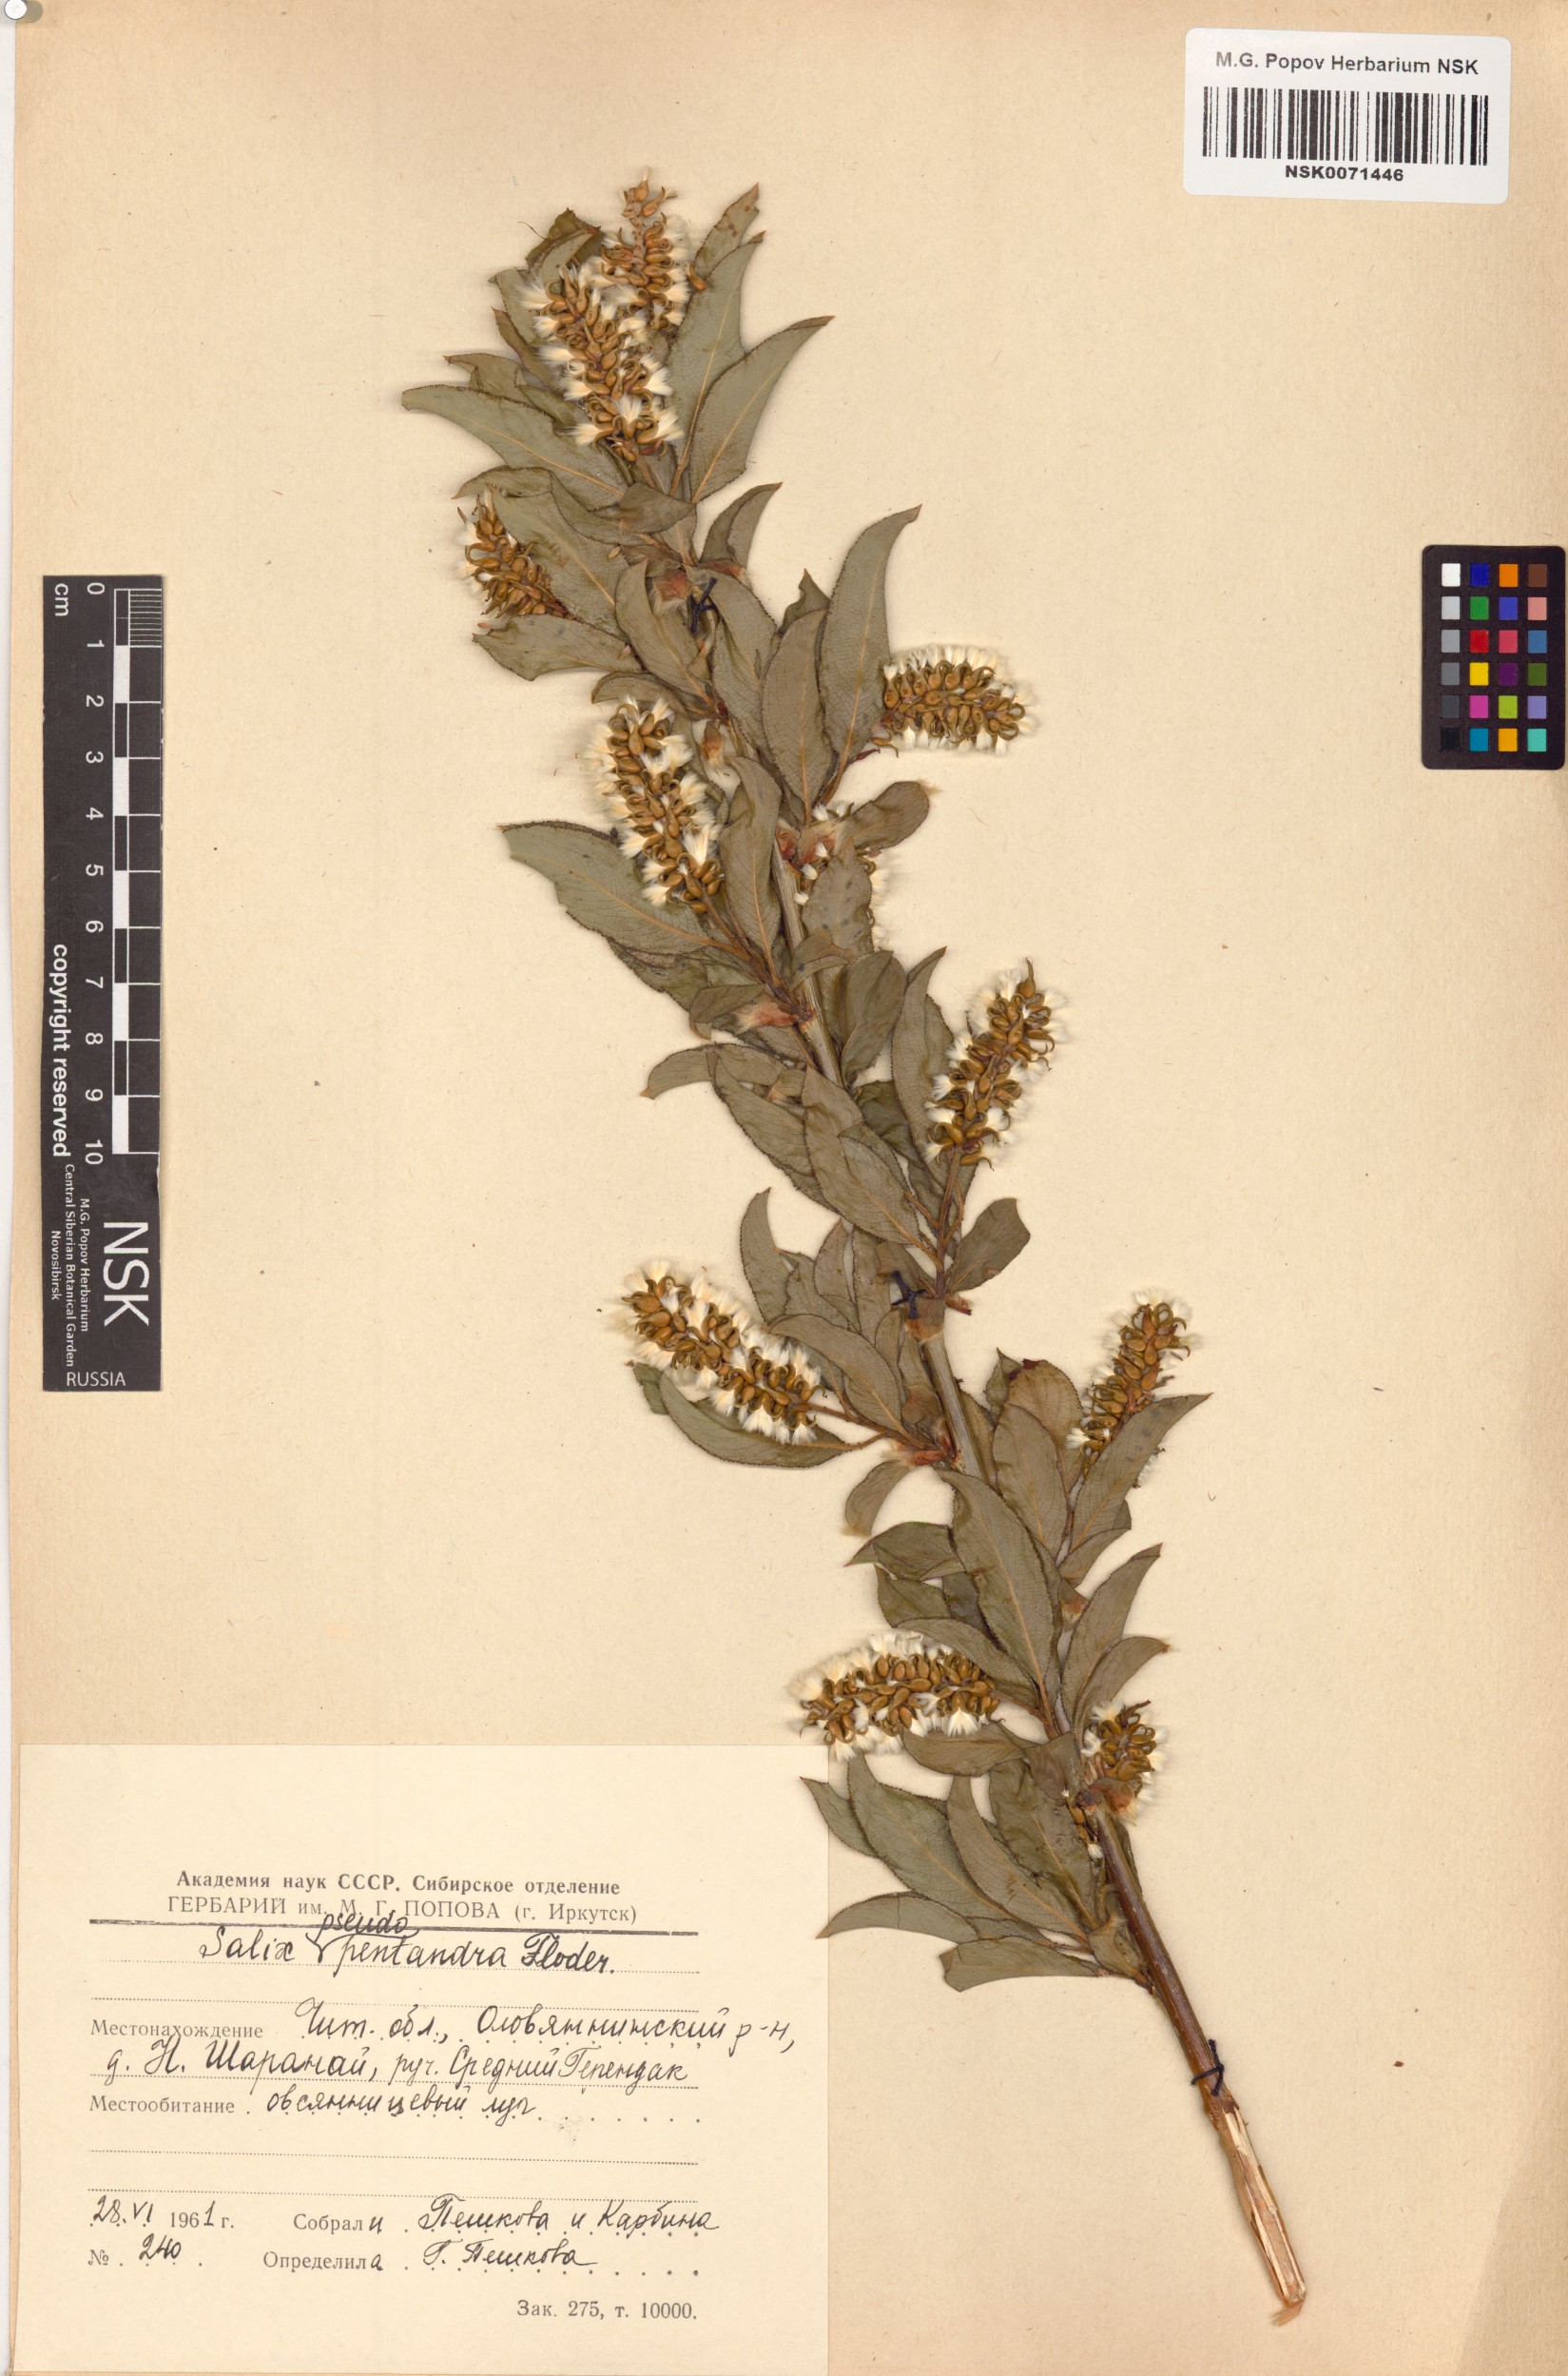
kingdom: Plantae
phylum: Tracheophyta
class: Magnoliopsida
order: Malpighiales
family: Salicaceae
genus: Salix
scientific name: Salix pseudopentandra
